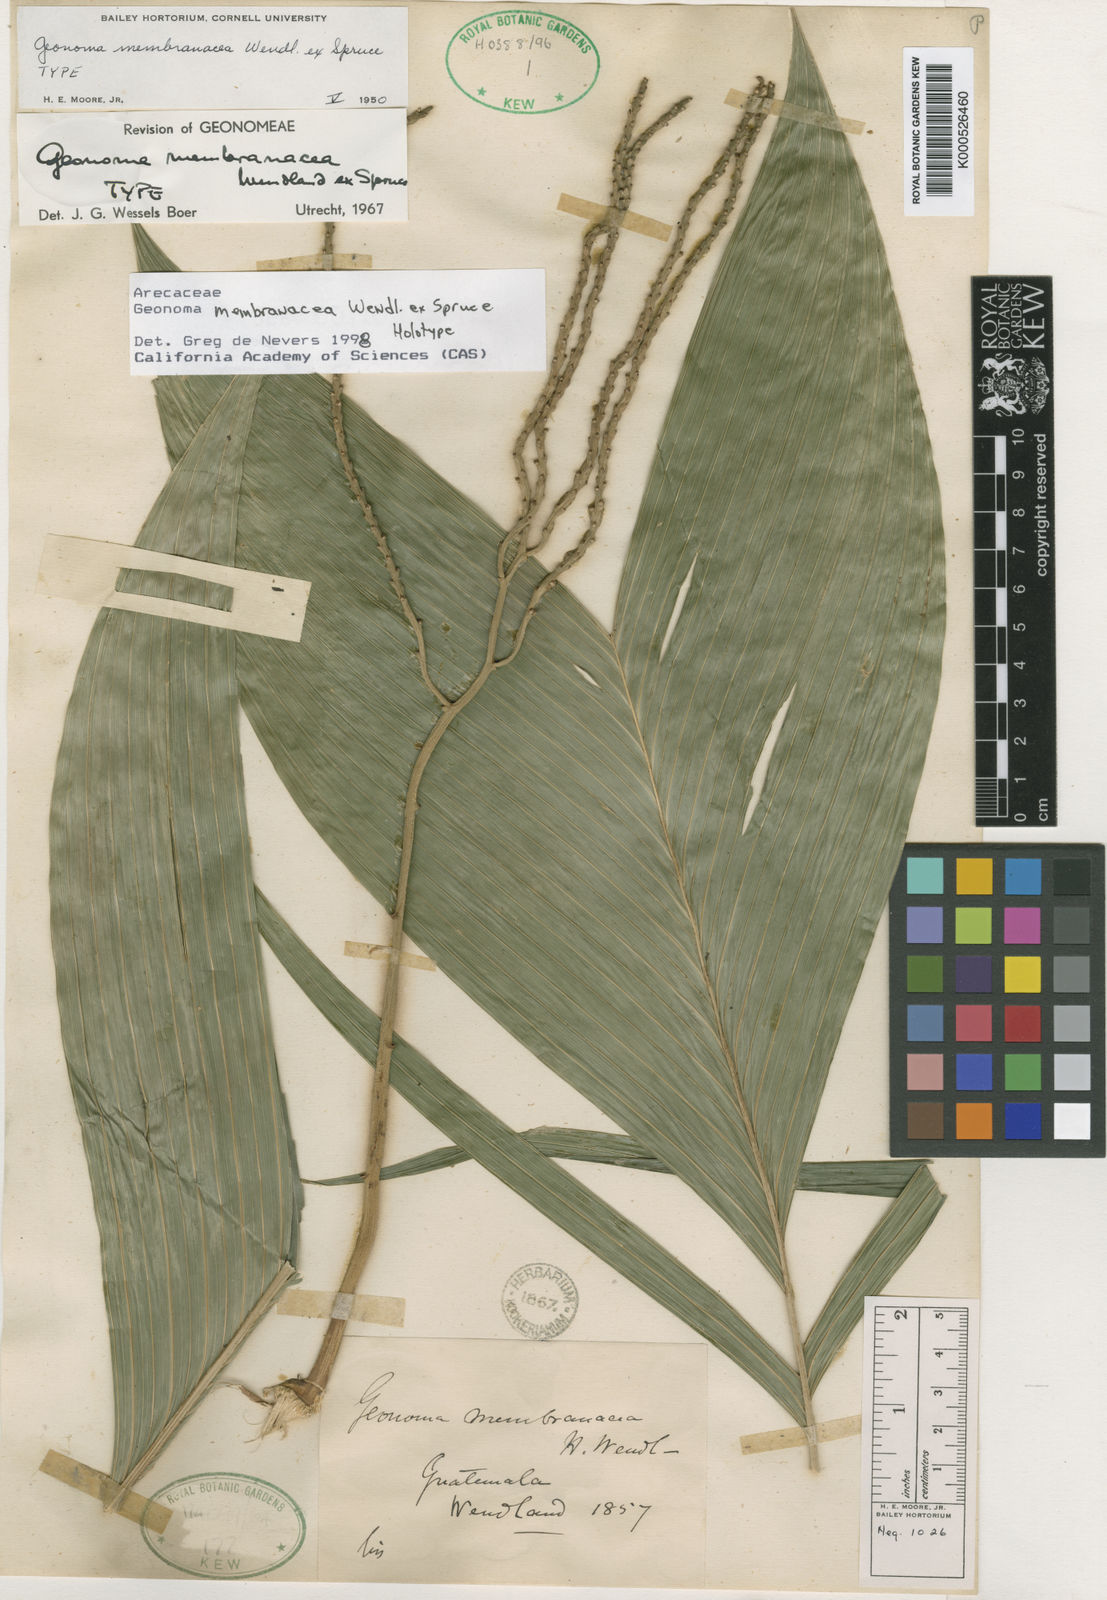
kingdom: Plantae
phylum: Tracheophyta
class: Liliopsida
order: Arecales
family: Arecaceae
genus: Geonoma
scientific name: Geonoma pinnatifrons
